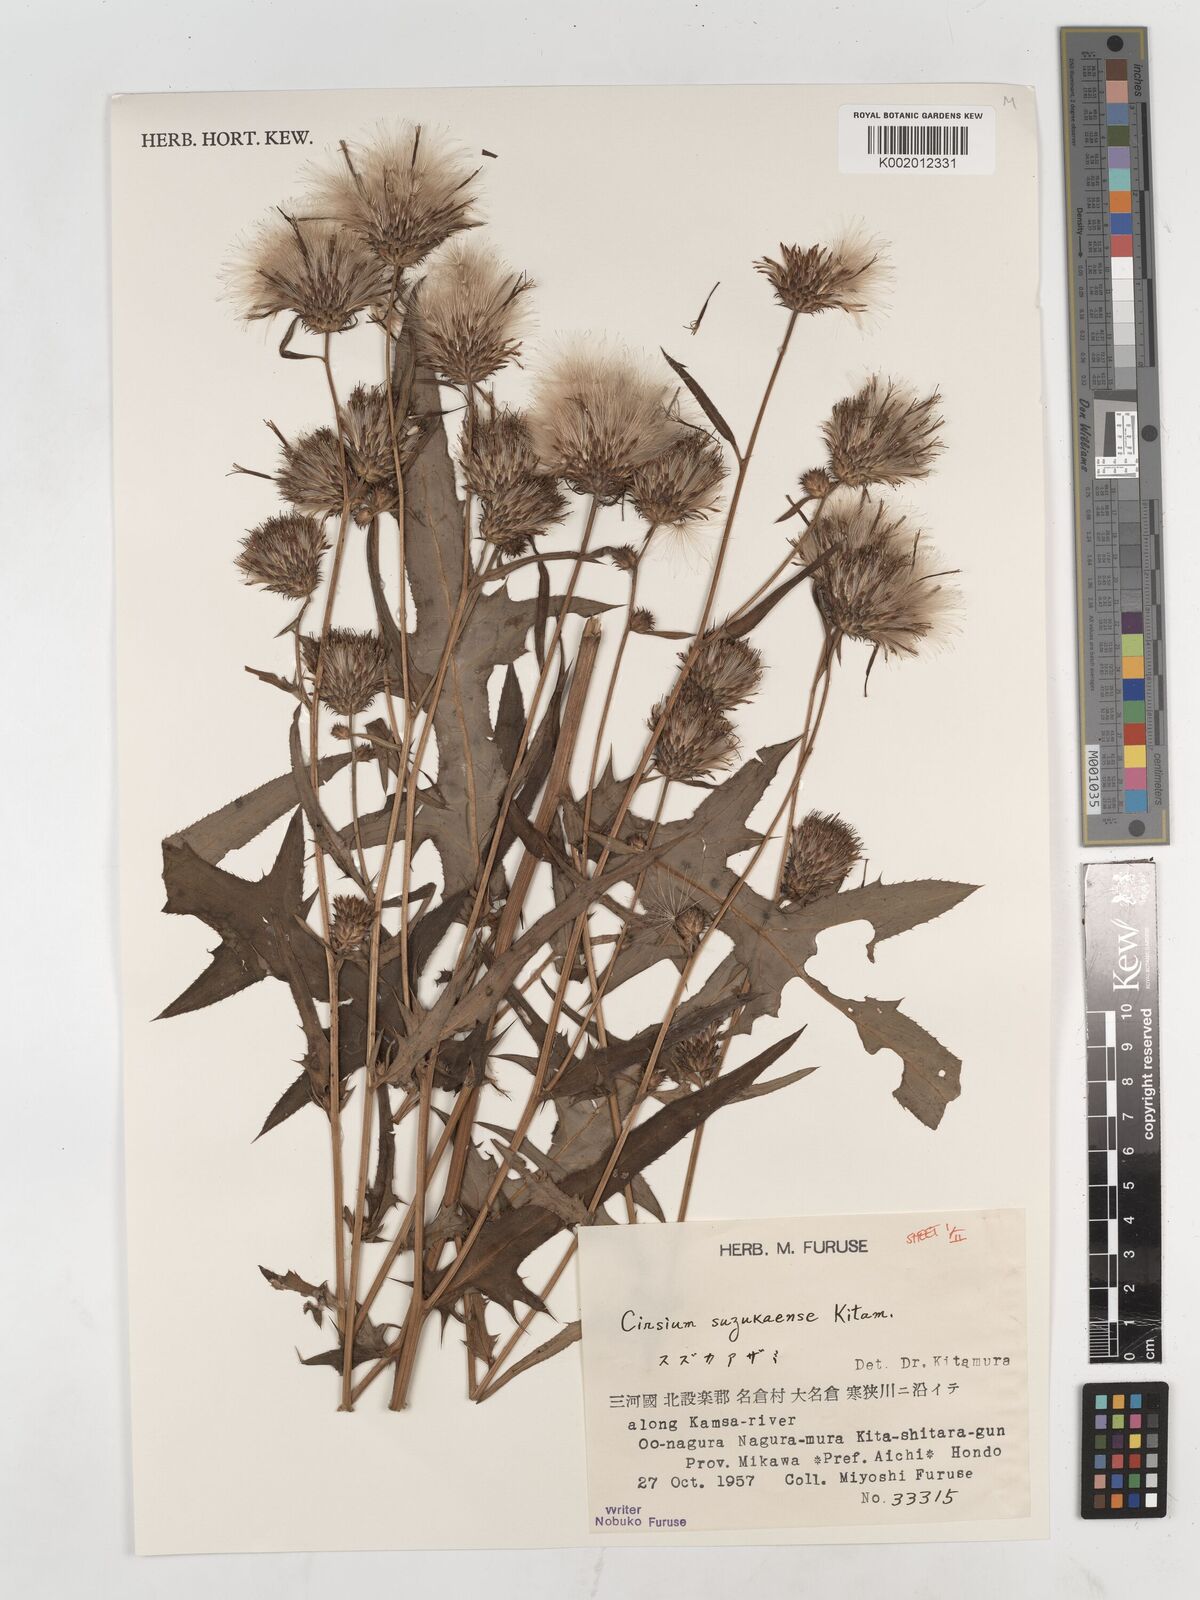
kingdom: Plantae
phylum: Tracheophyta
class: Magnoliopsida
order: Asterales
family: Asteraceae
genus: Cirsium
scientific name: Cirsium suzukaense
